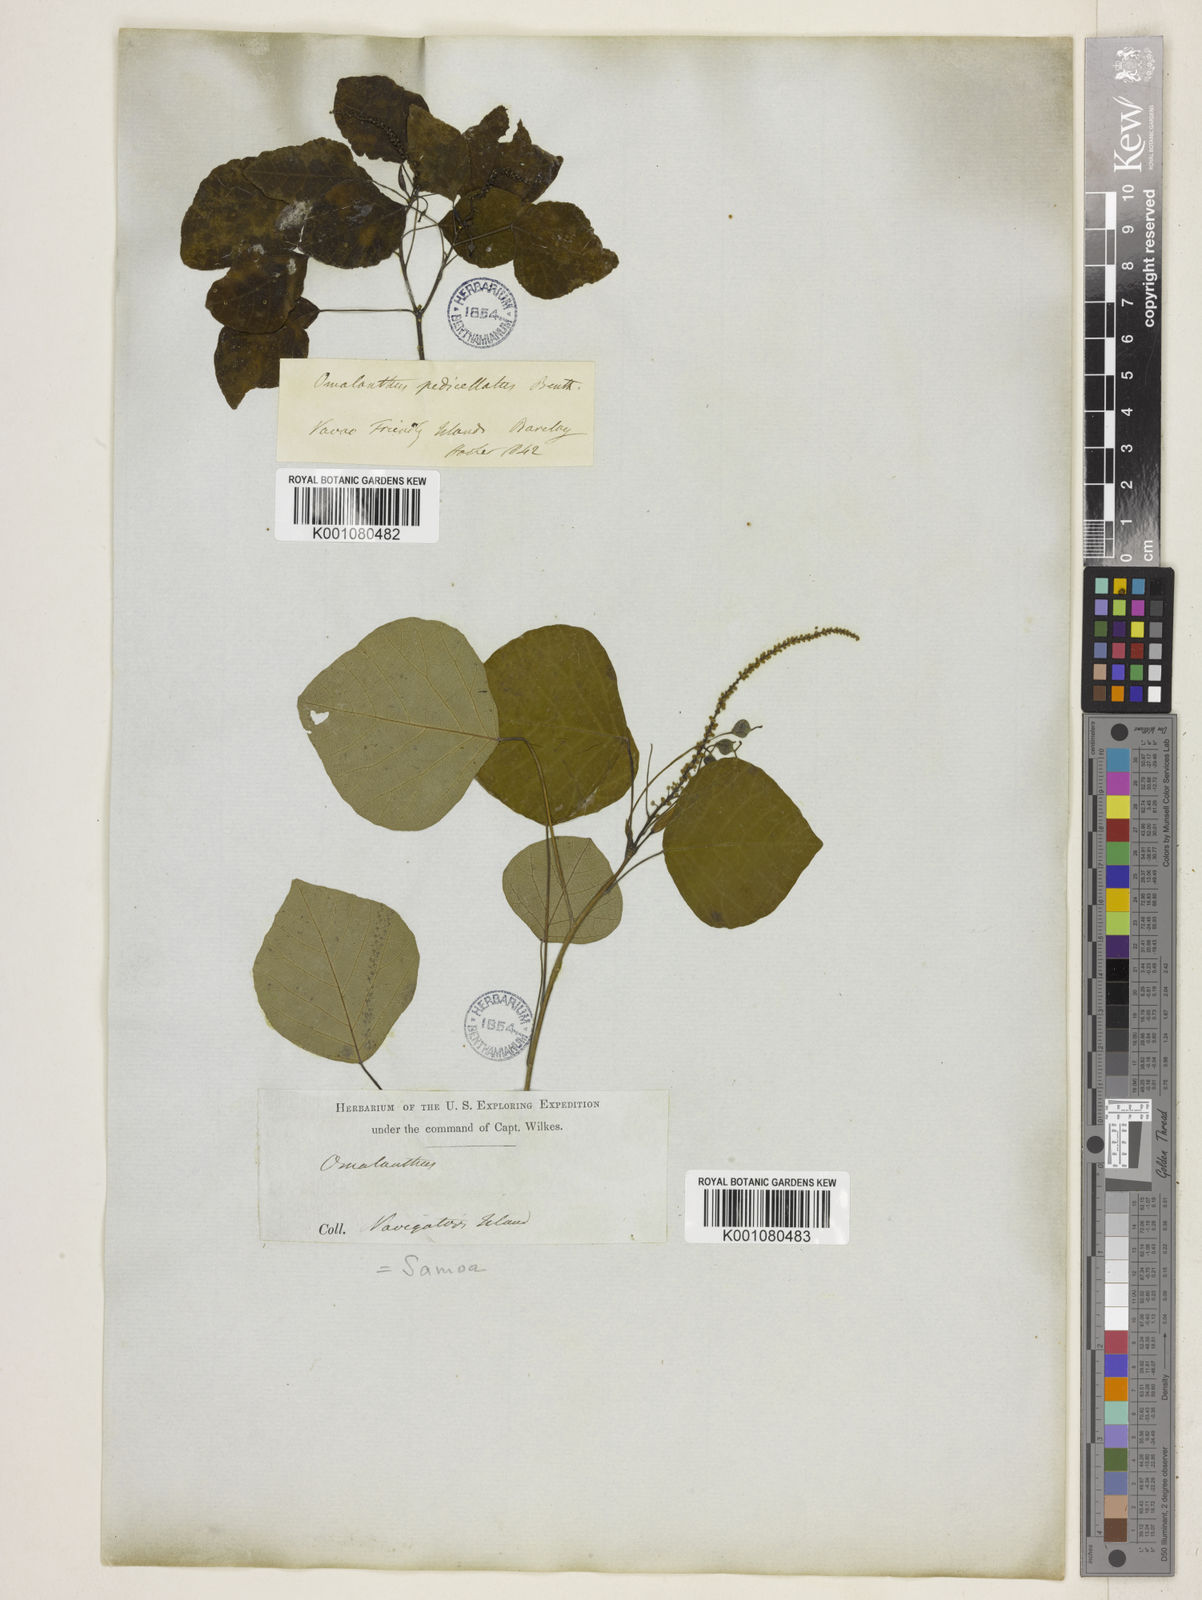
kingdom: Plantae
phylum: Tracheophyta
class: Magnoliopsida
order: Malpighiales
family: Euphorbiaceae
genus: Homalanthus
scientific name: Homalanthus nutans
